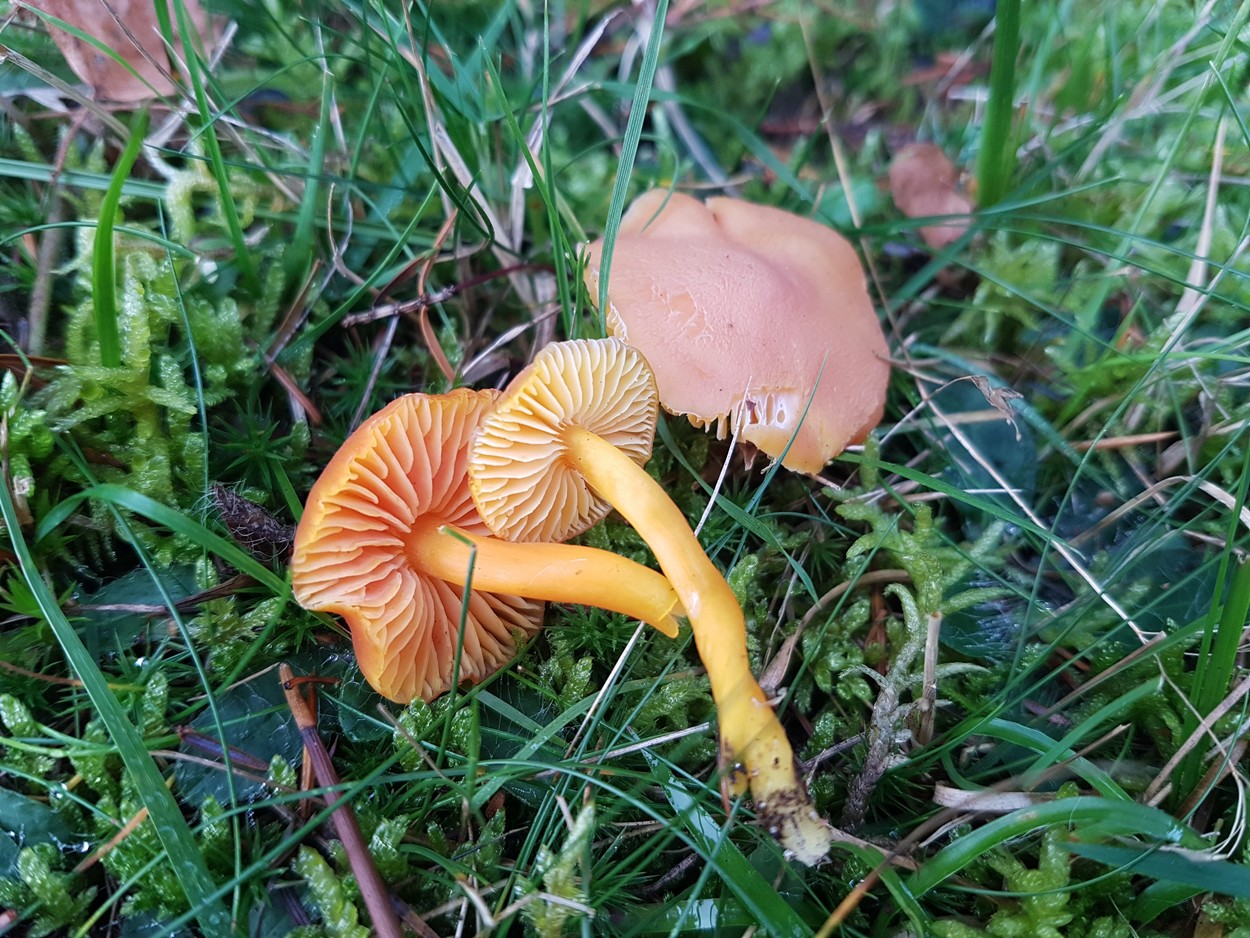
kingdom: Fungi
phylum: Basidiomycota
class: Agaricomycetes
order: Agaricales
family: Hygrophoraceae
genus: Hygrocybe
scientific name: Hygrocybe miniata
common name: mønje-vokshat
